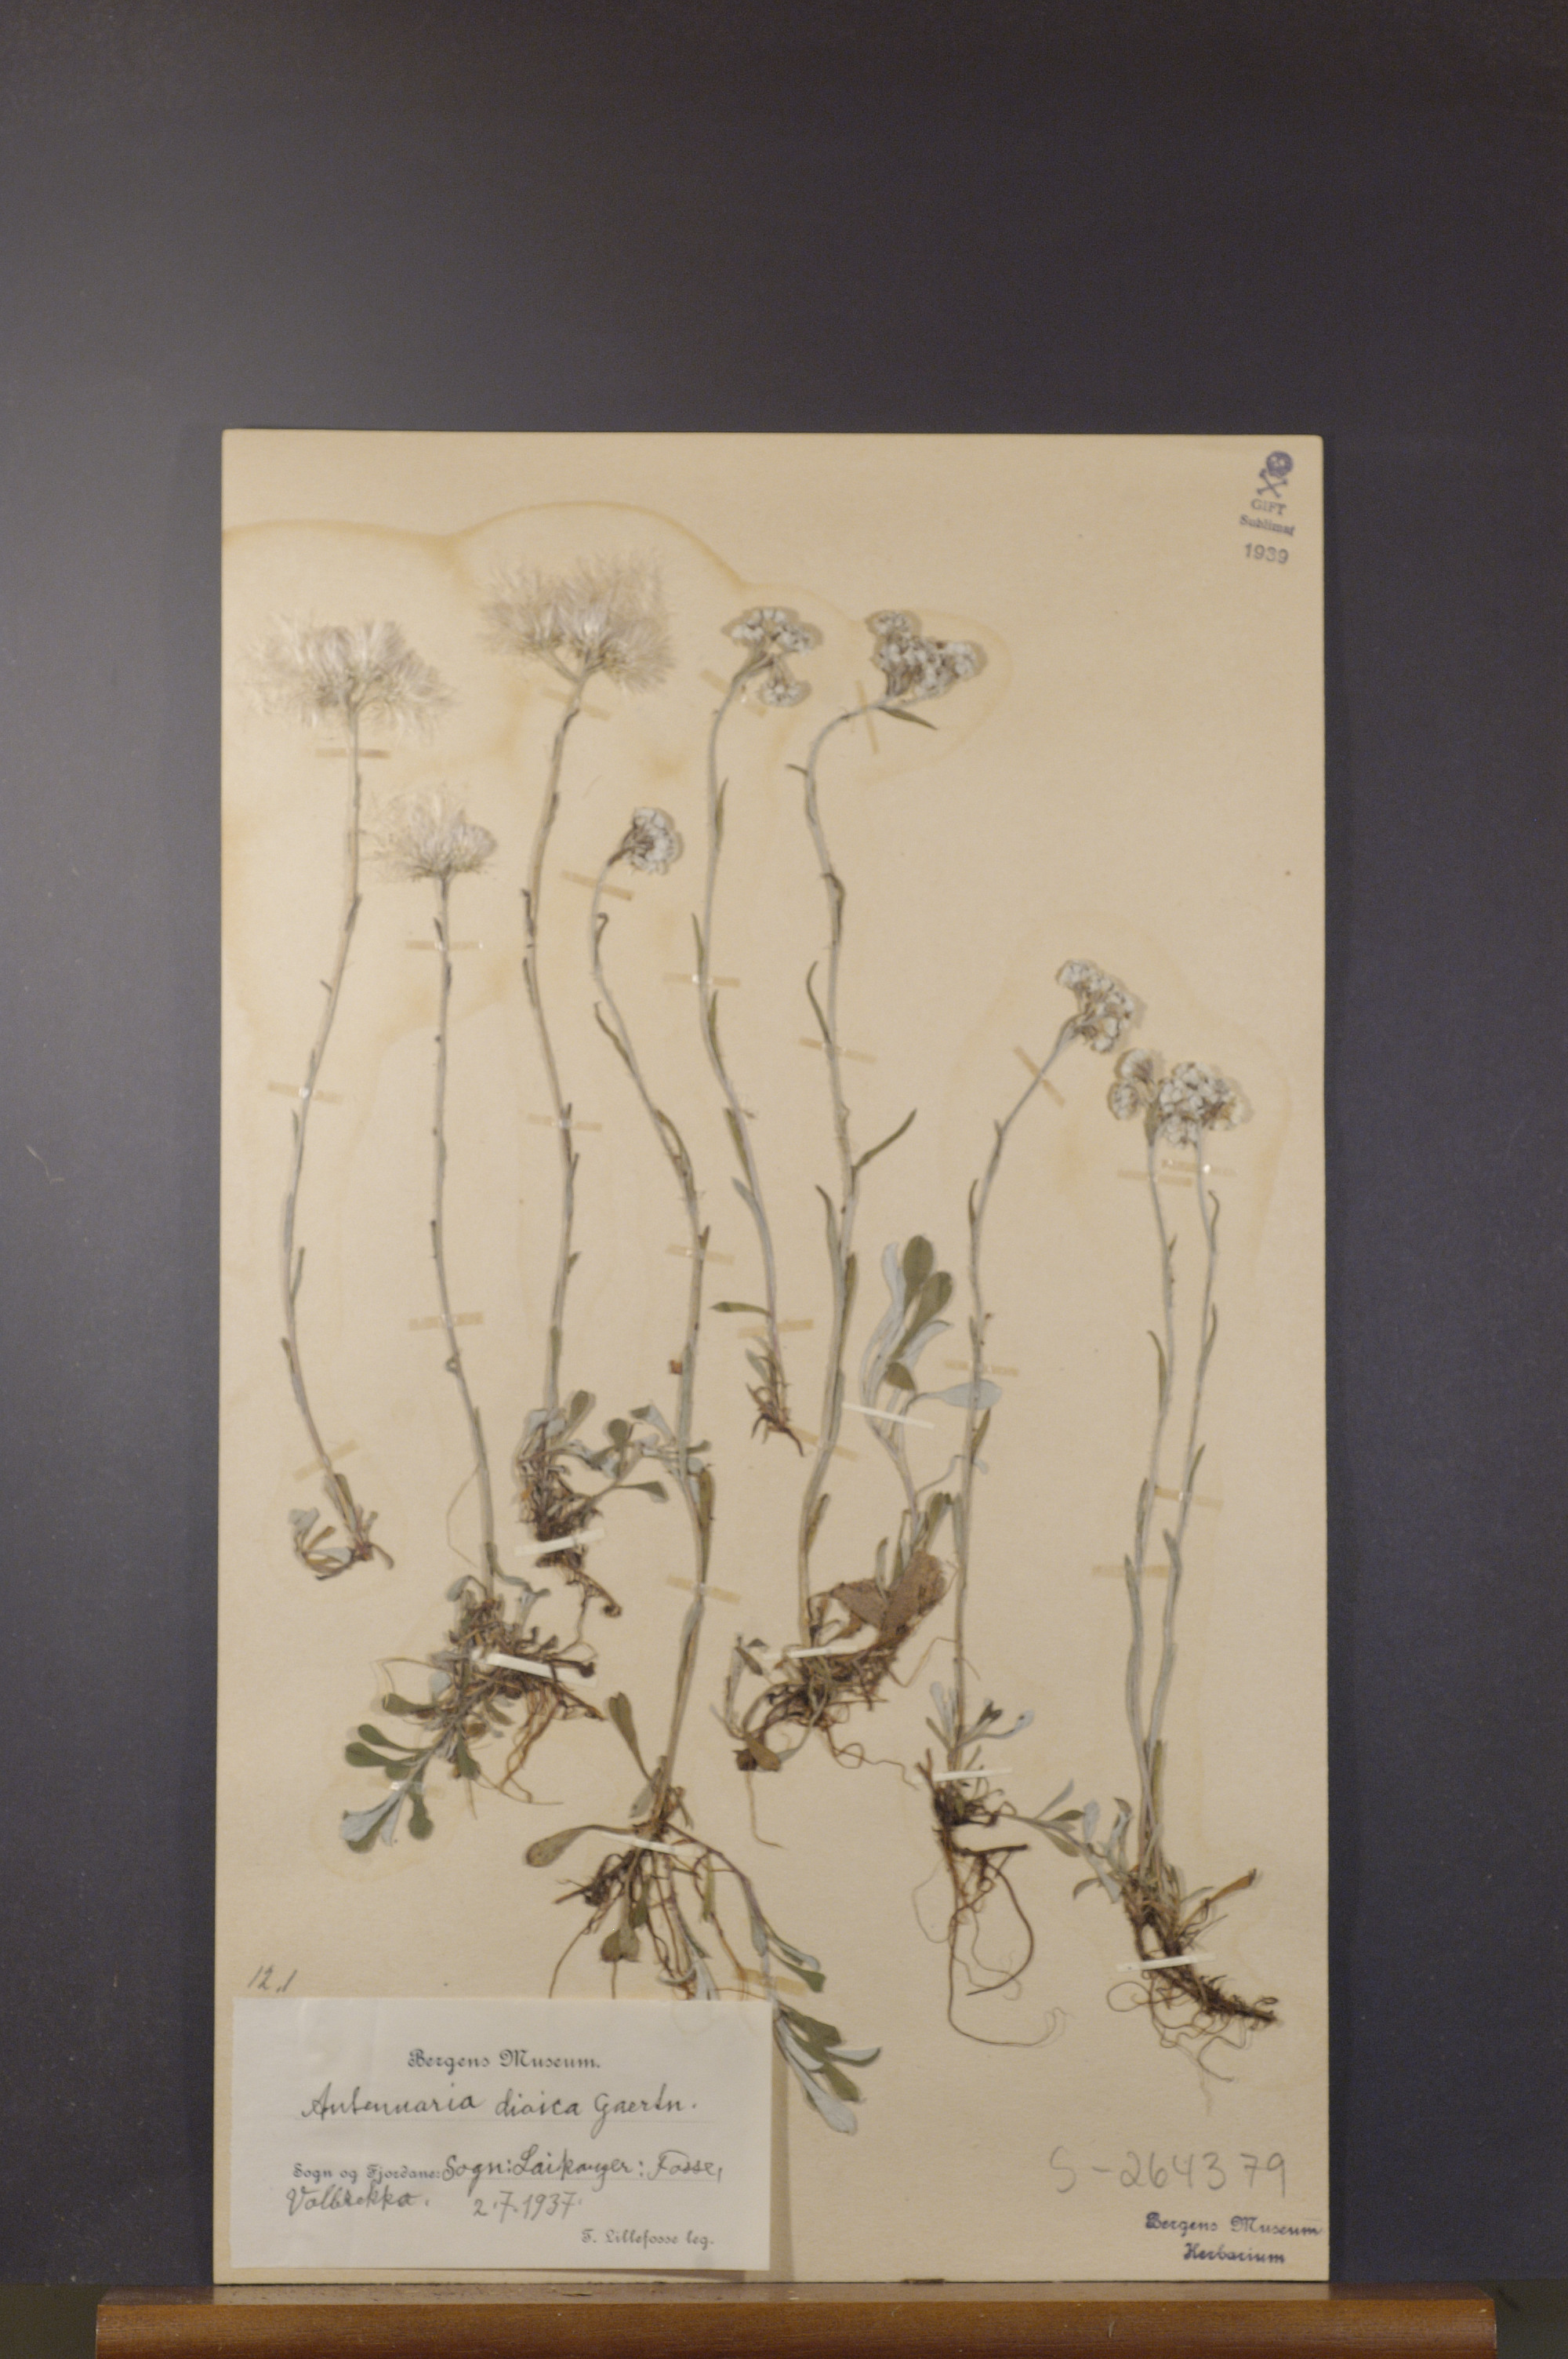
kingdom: Plantae
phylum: Tracheophyta
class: Magnoliopsida
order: Asterales
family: Asteraceae
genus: Antennaria
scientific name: Antennaria dioica
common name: Mountain everlasting
